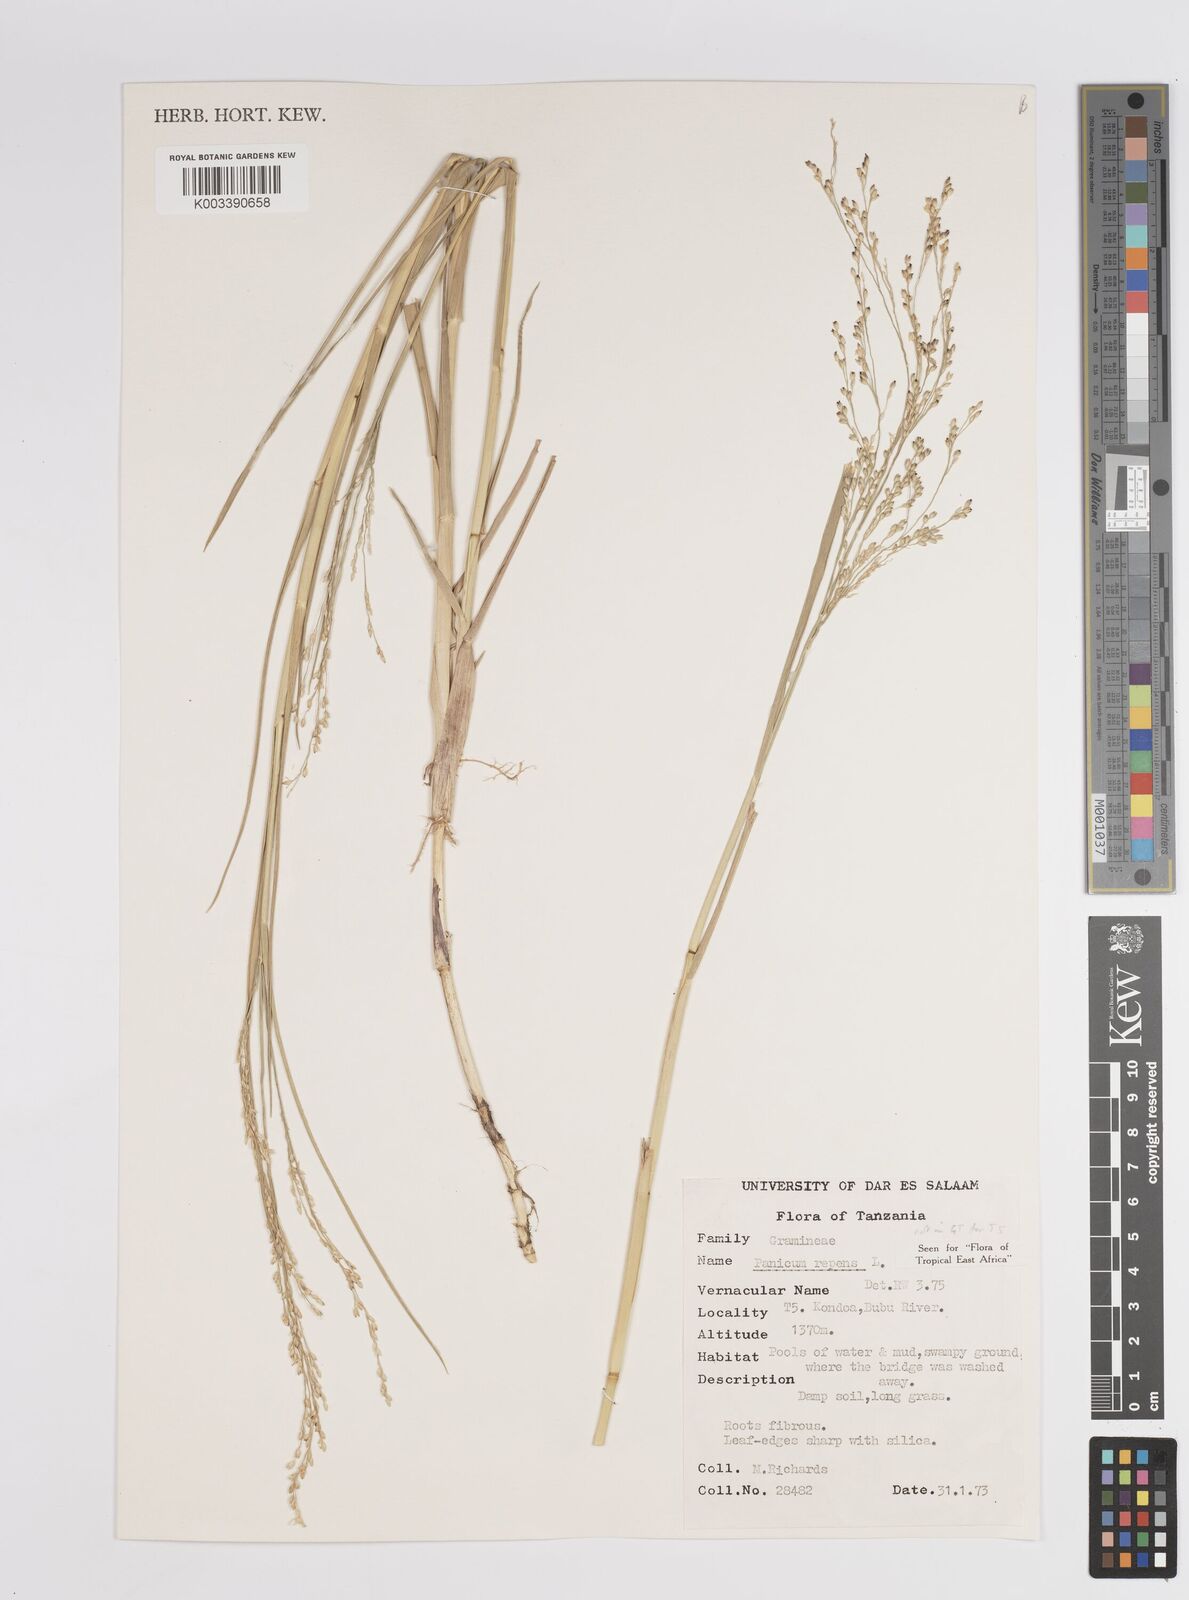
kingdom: Plantae
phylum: Tracheophyta
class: Liliopsida
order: Poales
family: Poaceae
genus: Panicum
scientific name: Panicum repens
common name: Torpedo grass
